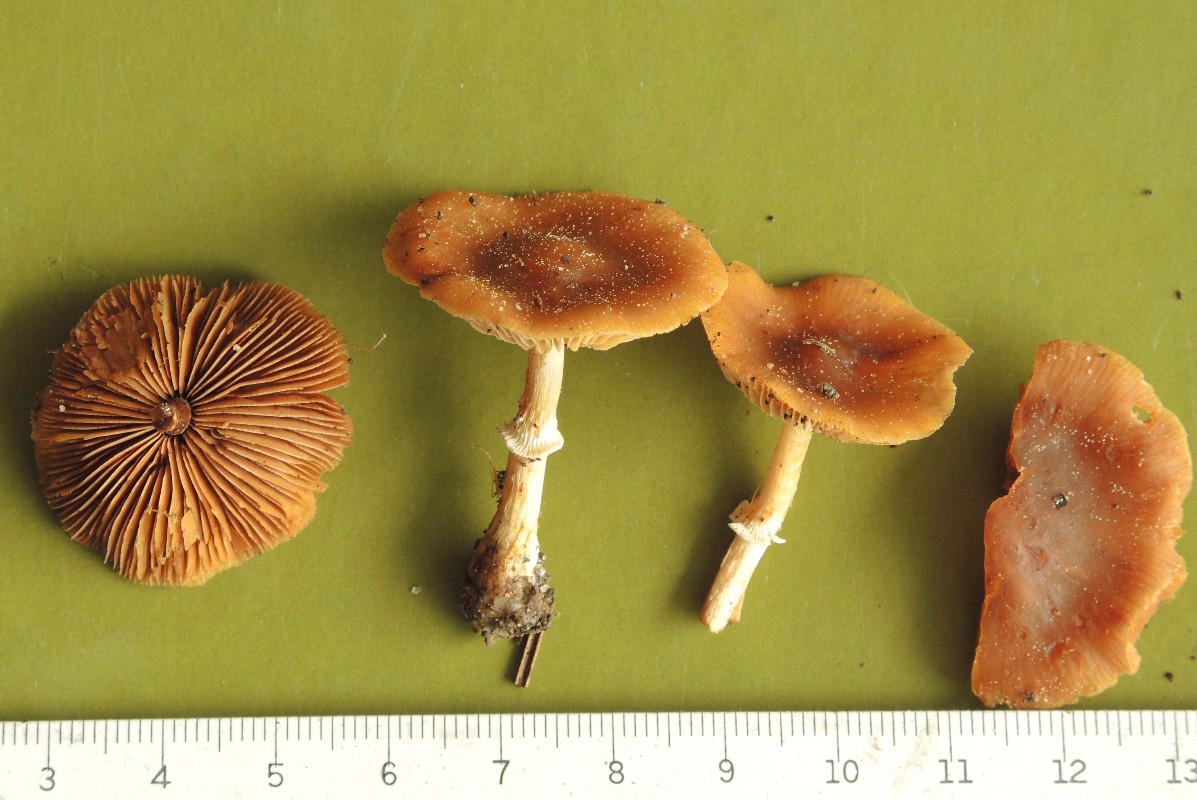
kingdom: Fungi
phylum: Basidiomycota
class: Agaricomycetes
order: Agaricales
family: Bolbitiaceae
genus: Conocybe
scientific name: Conocybe aporos
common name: tidlig dansehat
